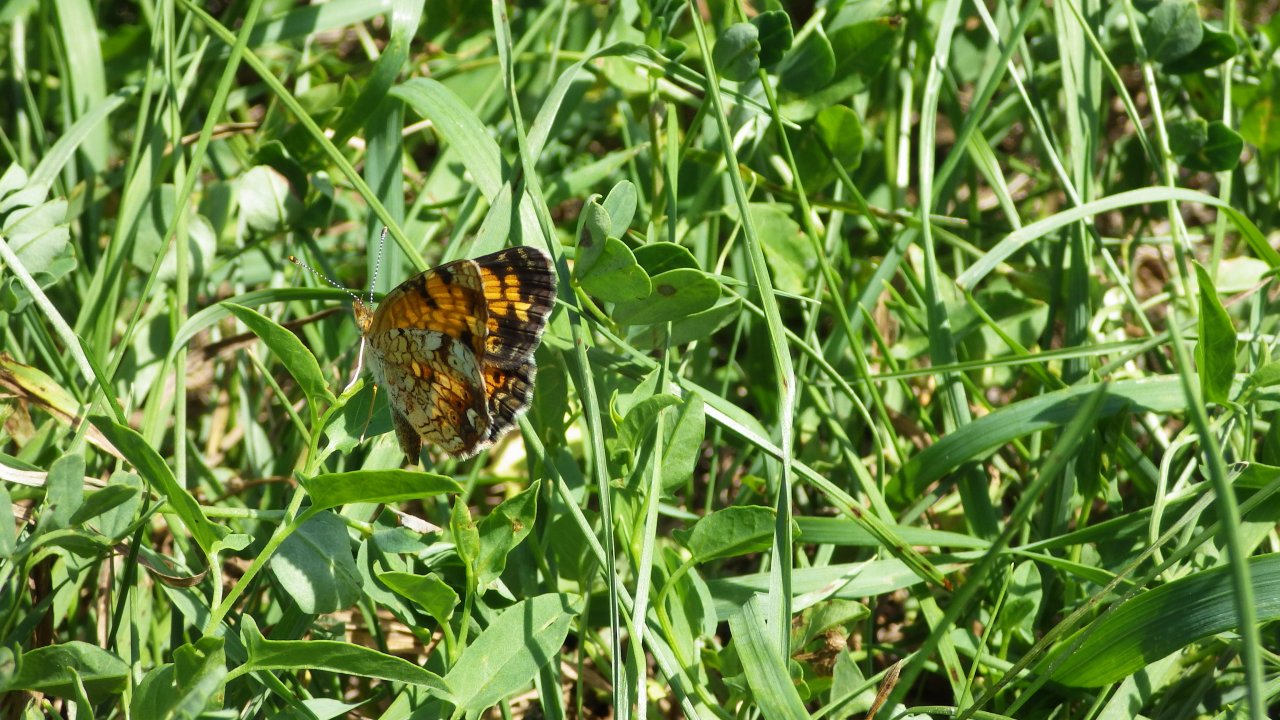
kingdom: Animalia
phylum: Arthropoda
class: Insecta
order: Lepidoptera
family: Nymphalidae
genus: Phyciodes
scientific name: Phyciodes tharos
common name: Pearl Crescent
